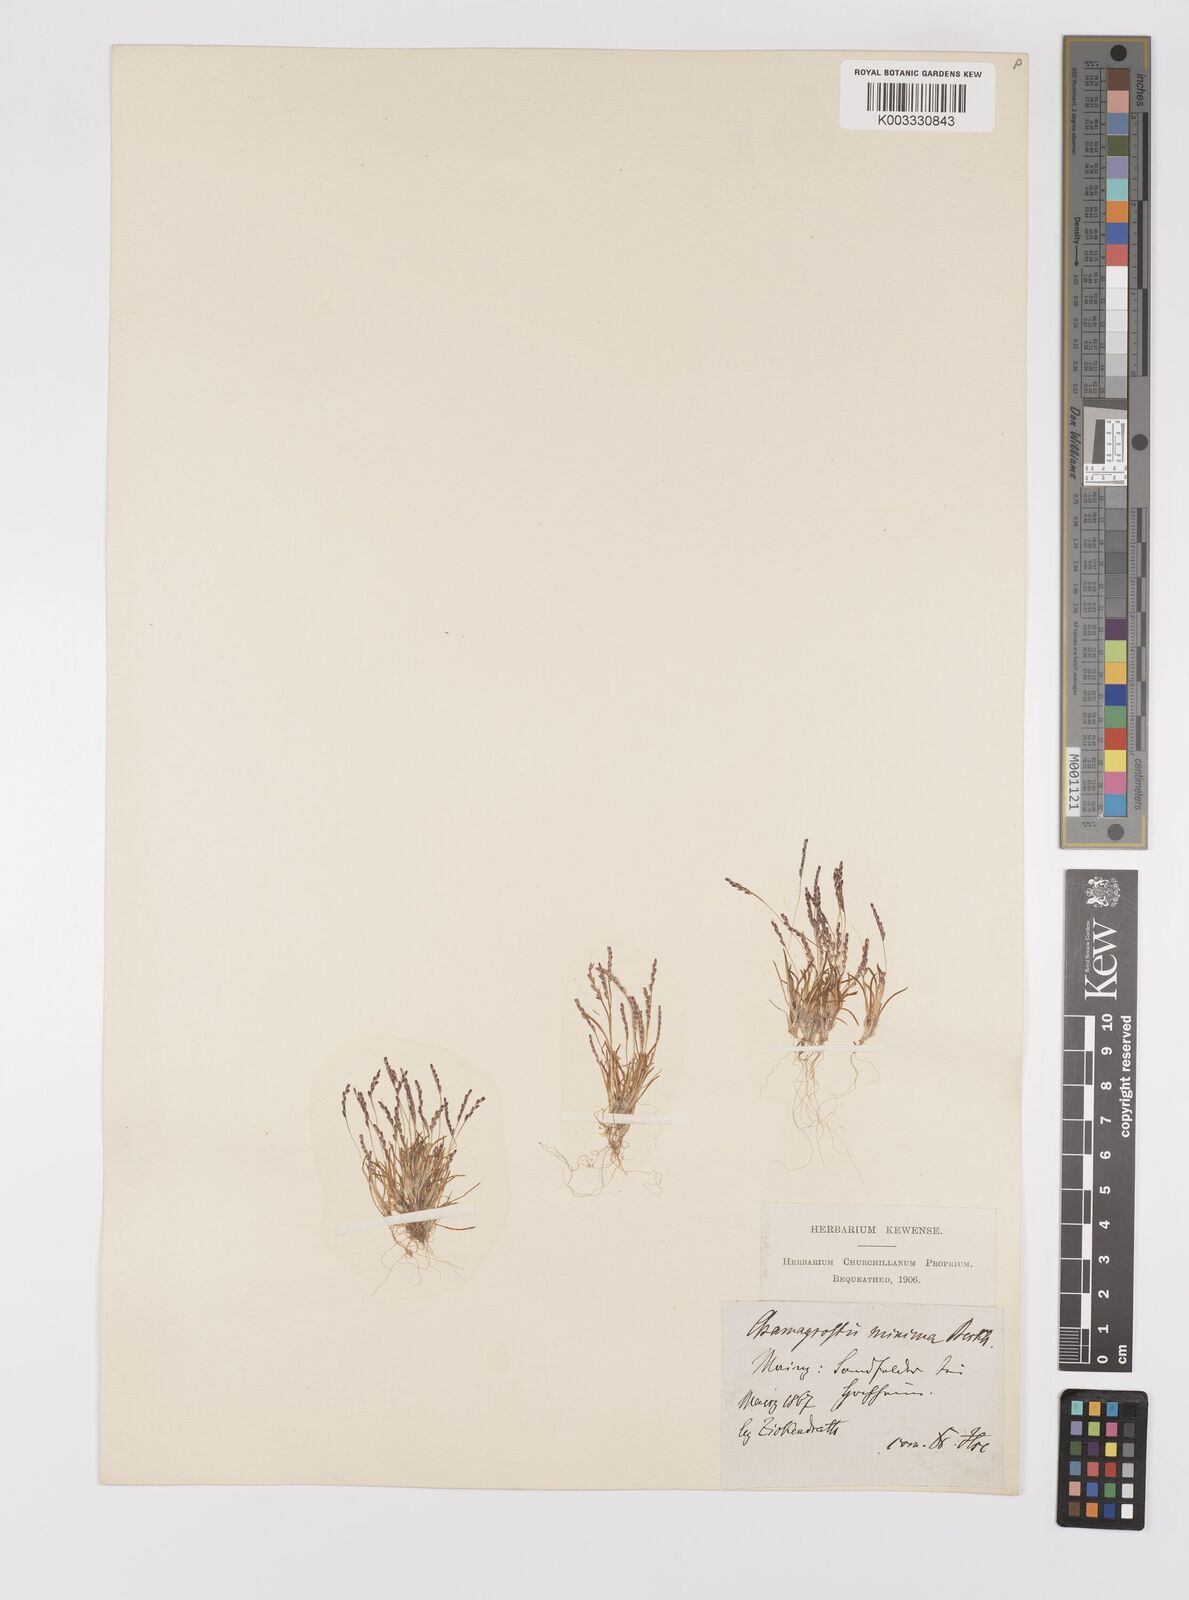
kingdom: Plantae
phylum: Tracheophyta
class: Liliopsida
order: Poales
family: Poaceae
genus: Mibora
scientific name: Mibora minima
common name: Early sand-grass
